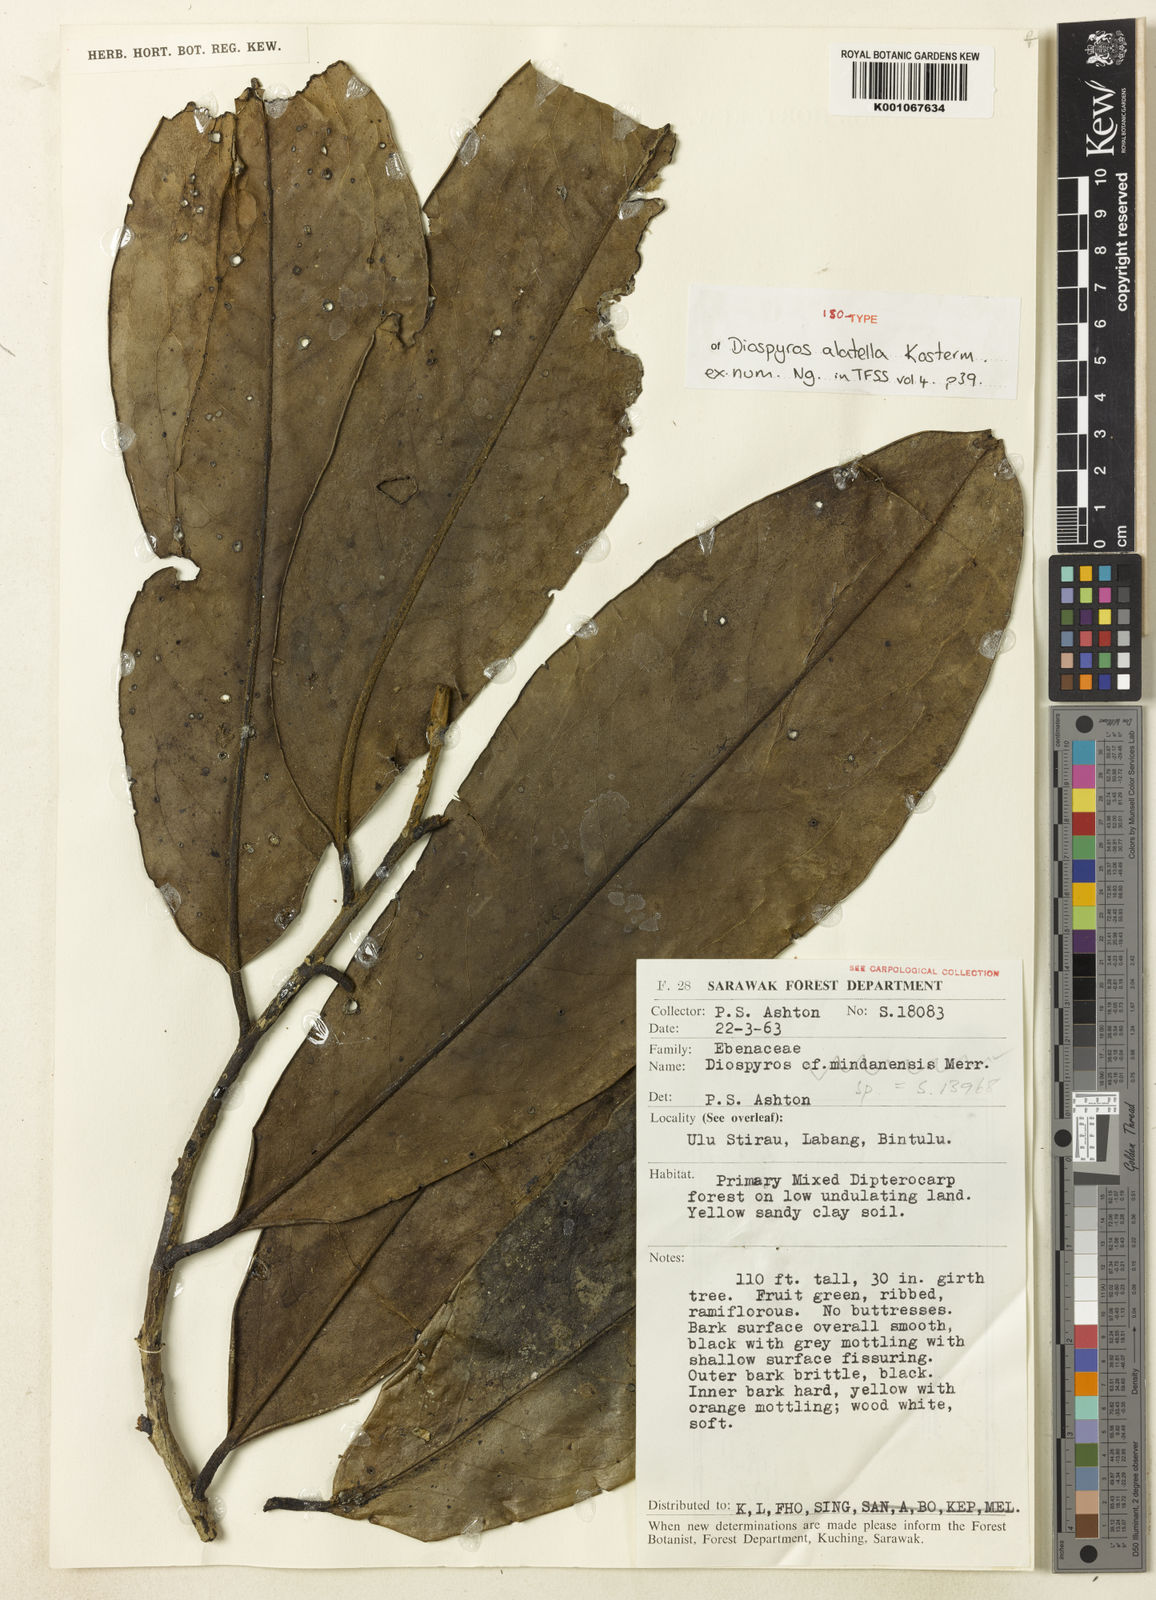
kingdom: Plantae
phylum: Tracheophyta
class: Magnoliopsida
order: Ericales
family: Ebenaceae
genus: Diospyros
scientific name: Diospyros alatella
